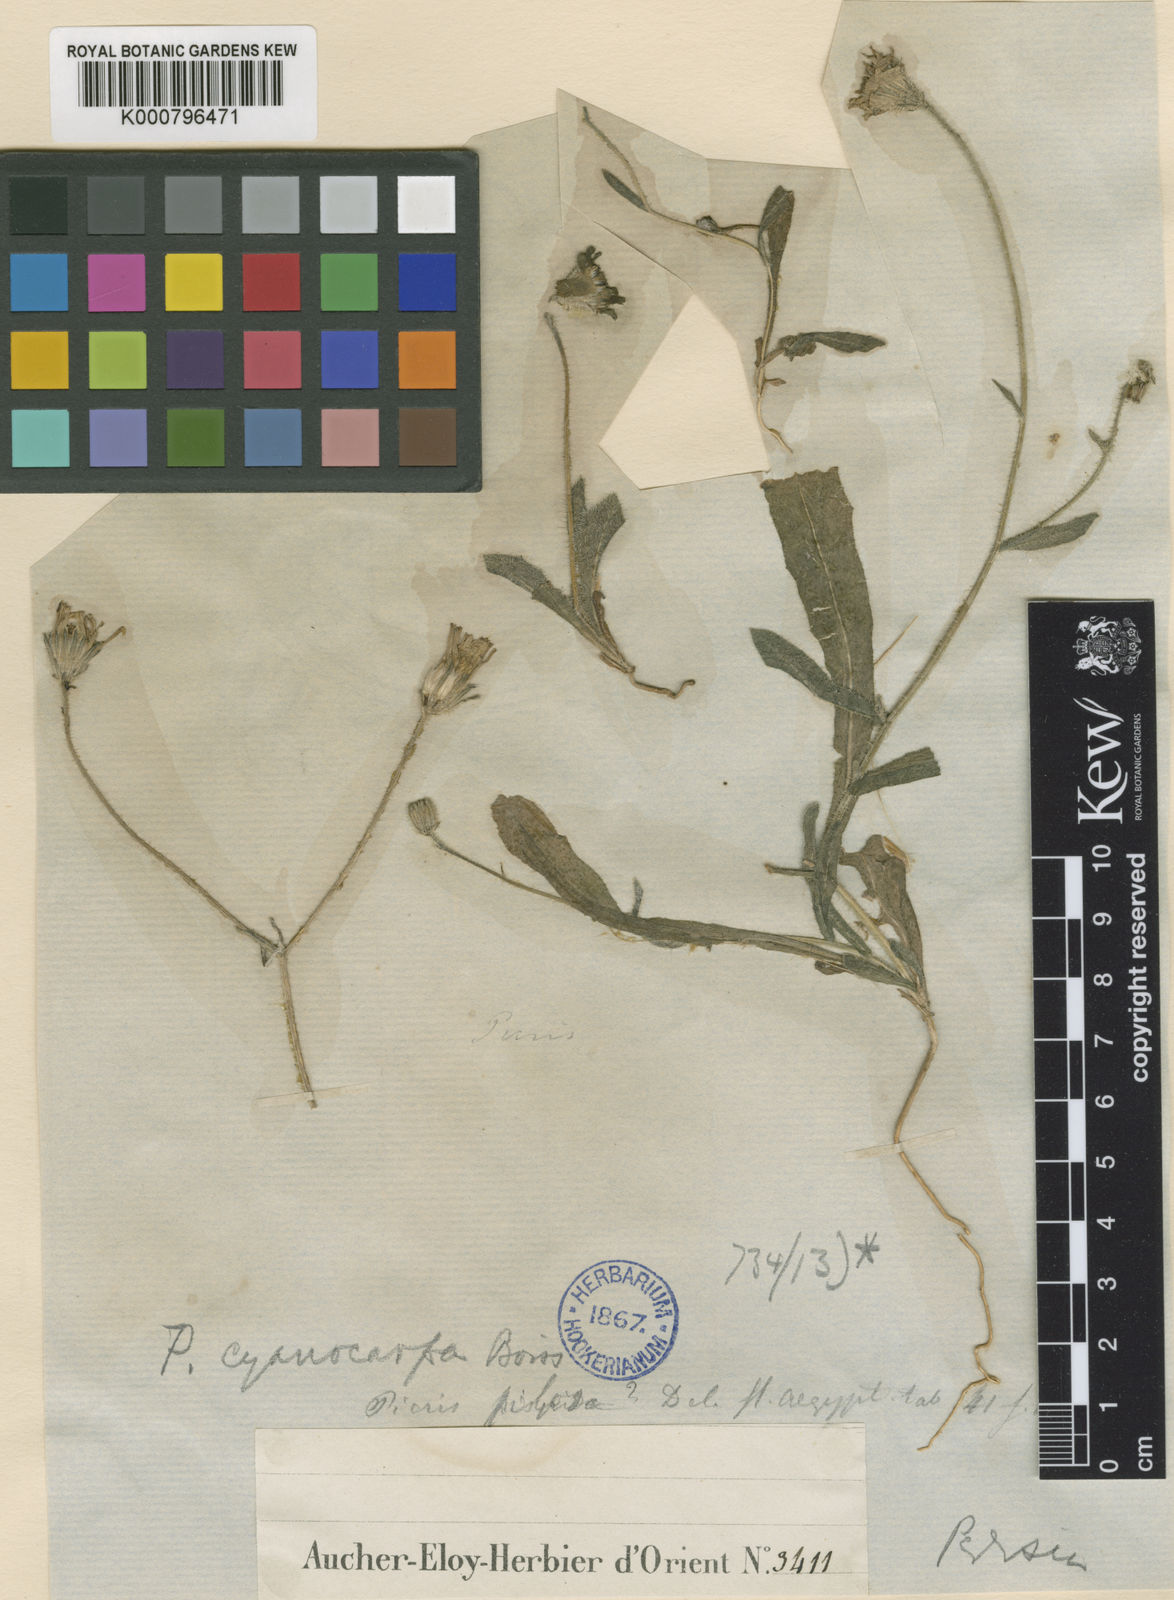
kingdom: Plantae
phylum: Tracheophyta
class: Magnoliopsida
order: Asterales
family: Asteraceae
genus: Picris
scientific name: Picris cyanocarpa
